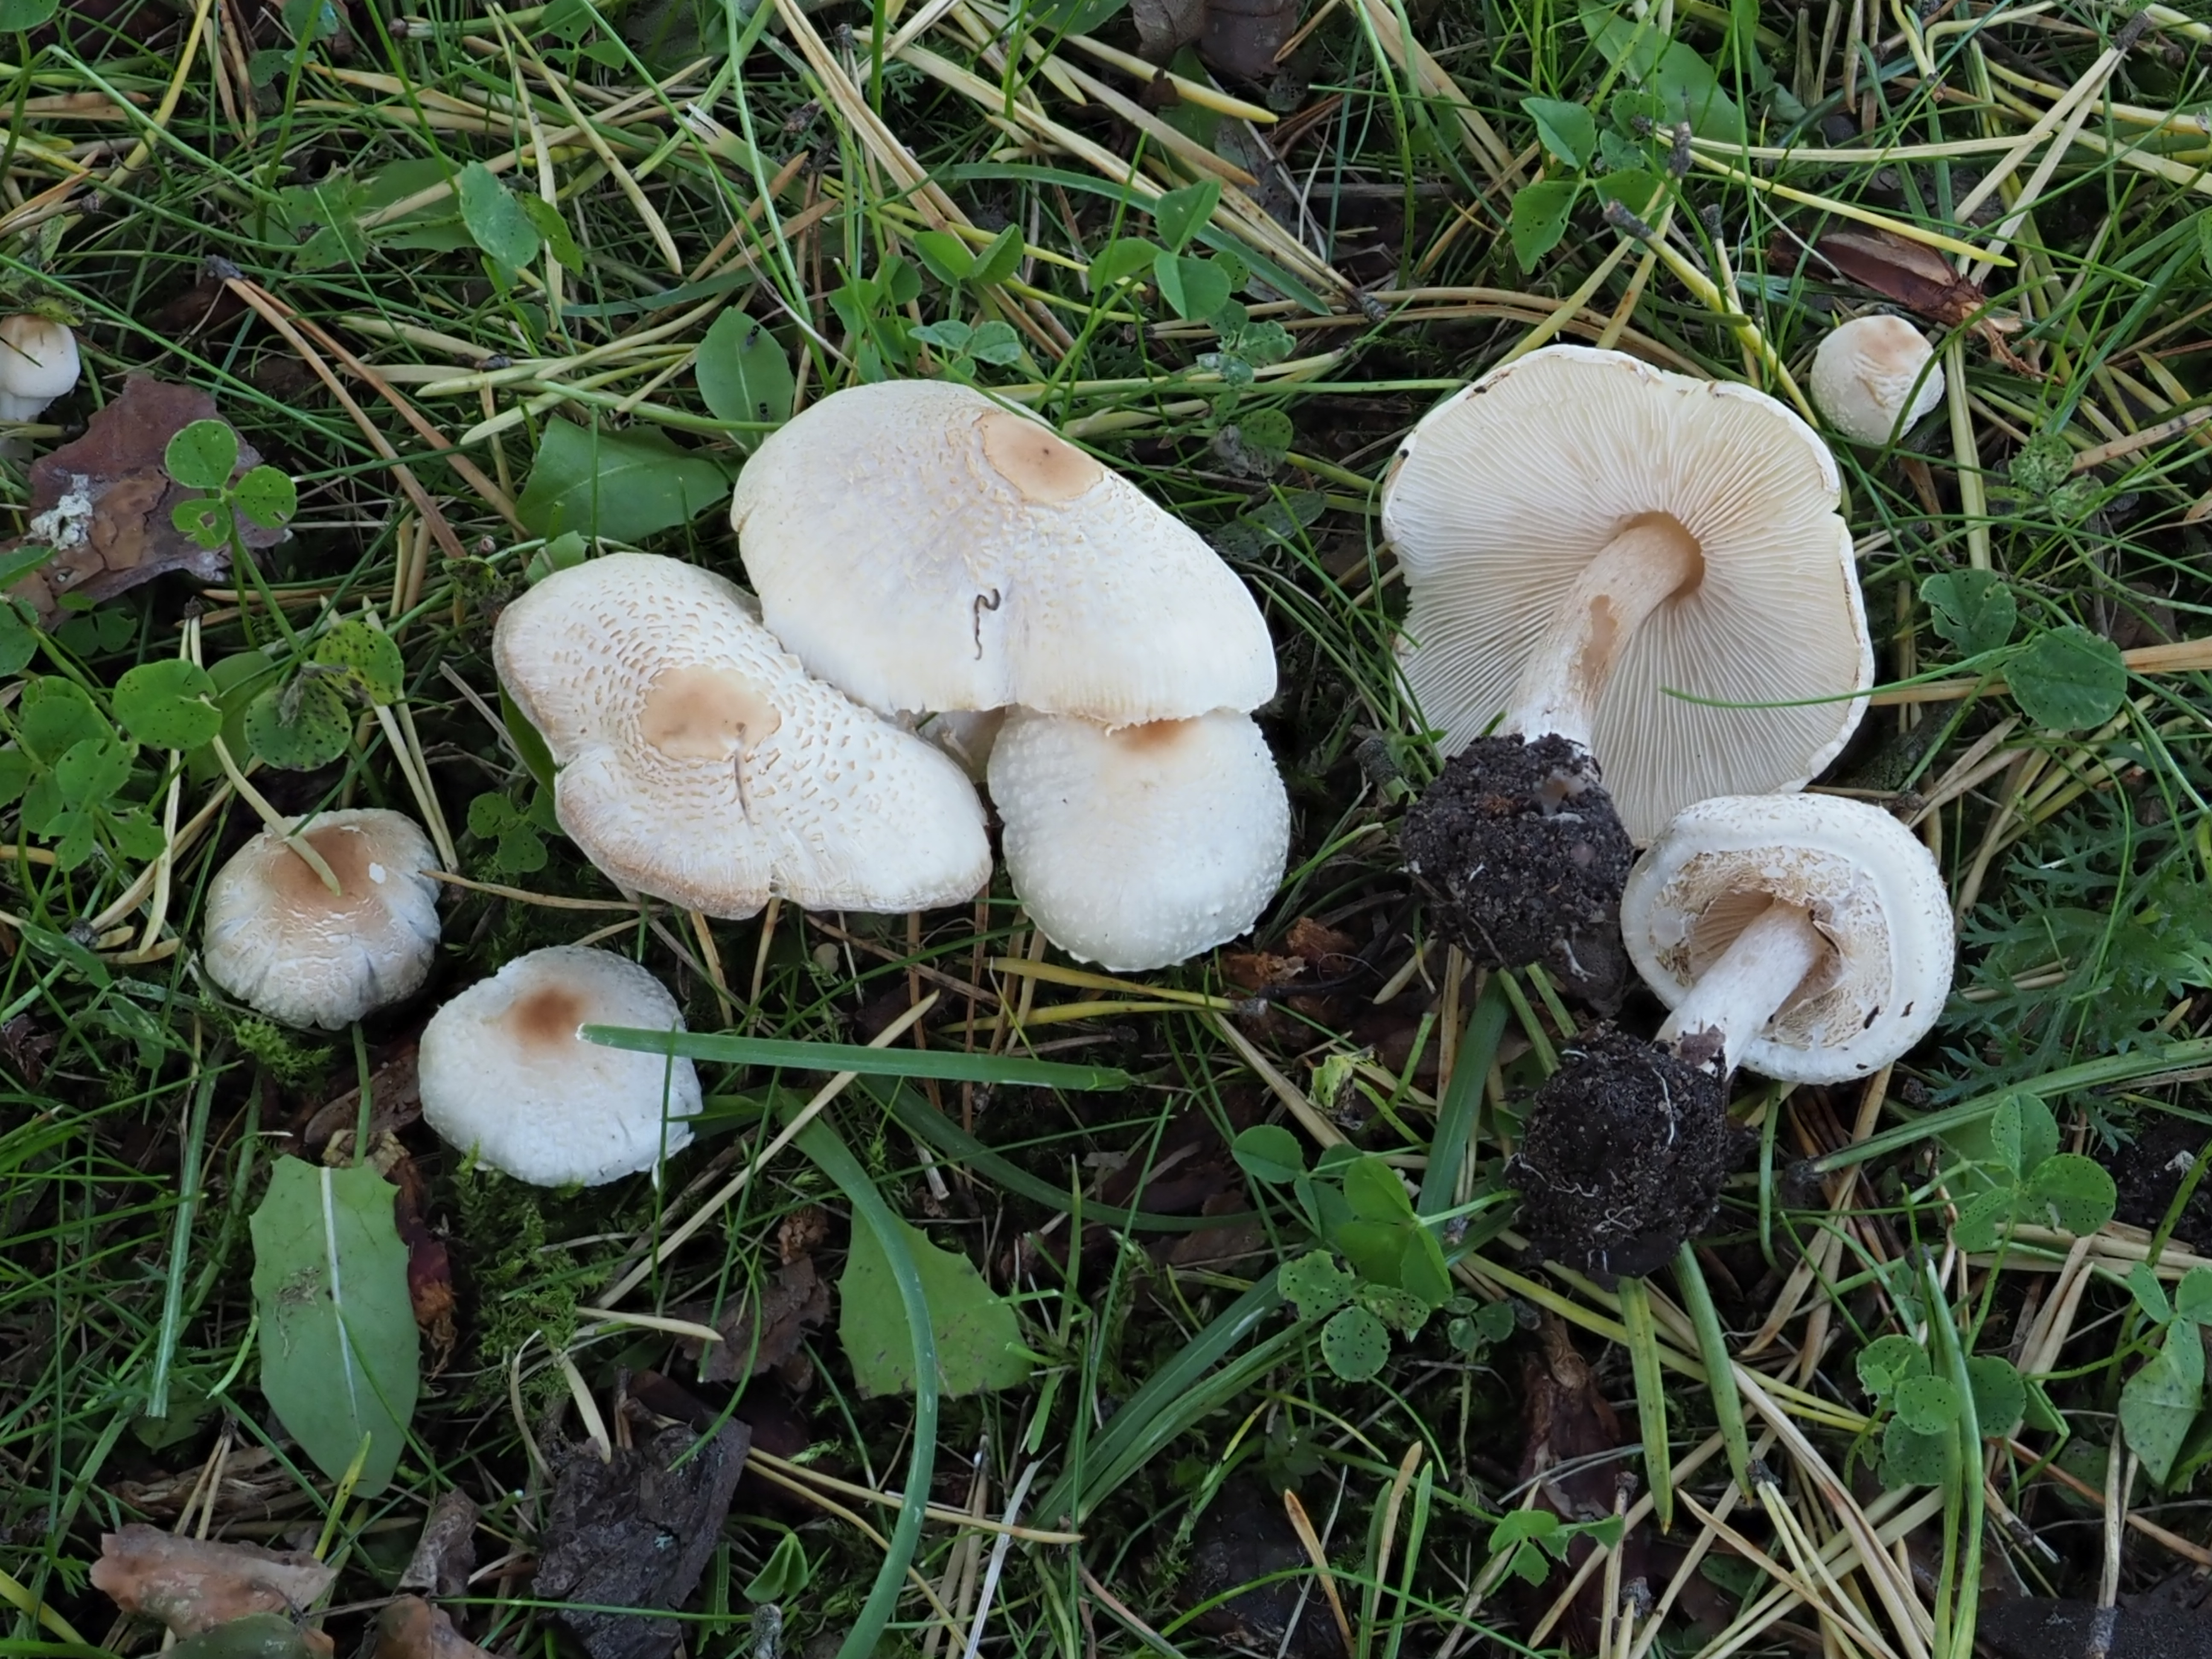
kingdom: Fungi
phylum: Basidiomycota
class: Agaricomycetes
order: Agaricales
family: Agaricaceae
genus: Lepiota
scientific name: Lepiota cristata
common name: Stinking dapperling
